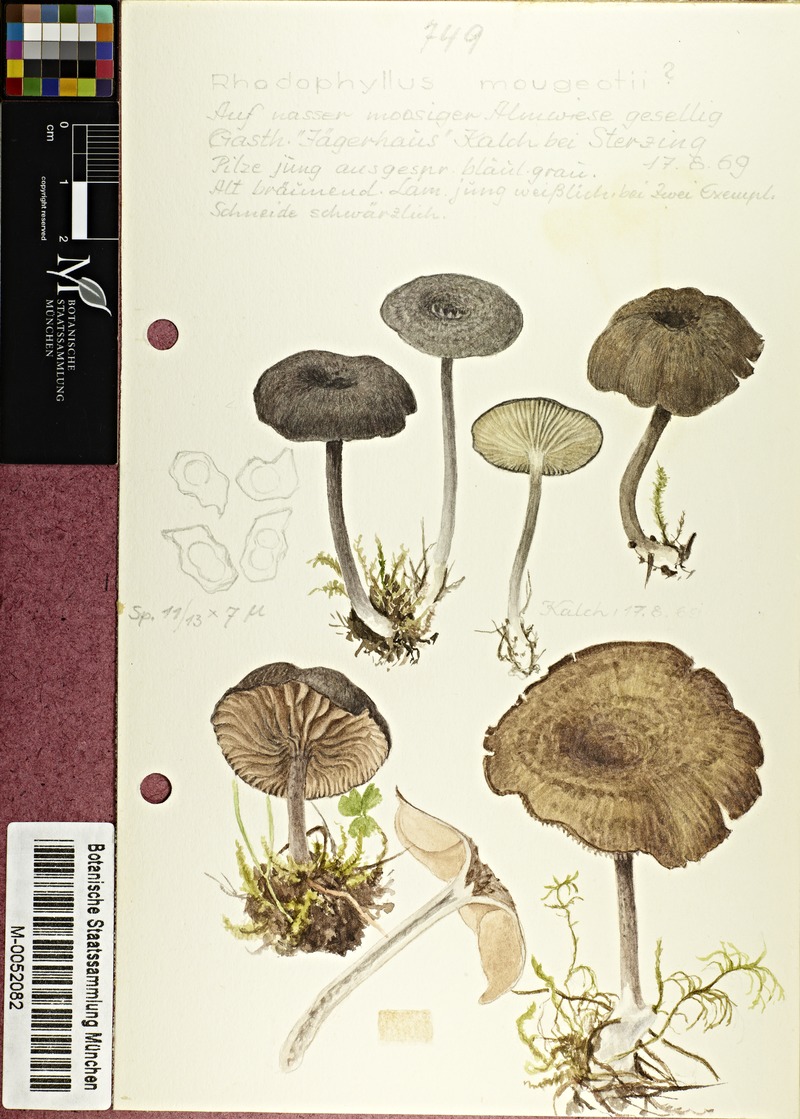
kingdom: Fungi
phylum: Basidiomycota
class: Agaricomycetes
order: Agaricales
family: Entolomataceae
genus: Entoloma
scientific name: Entoloma mougeotii
